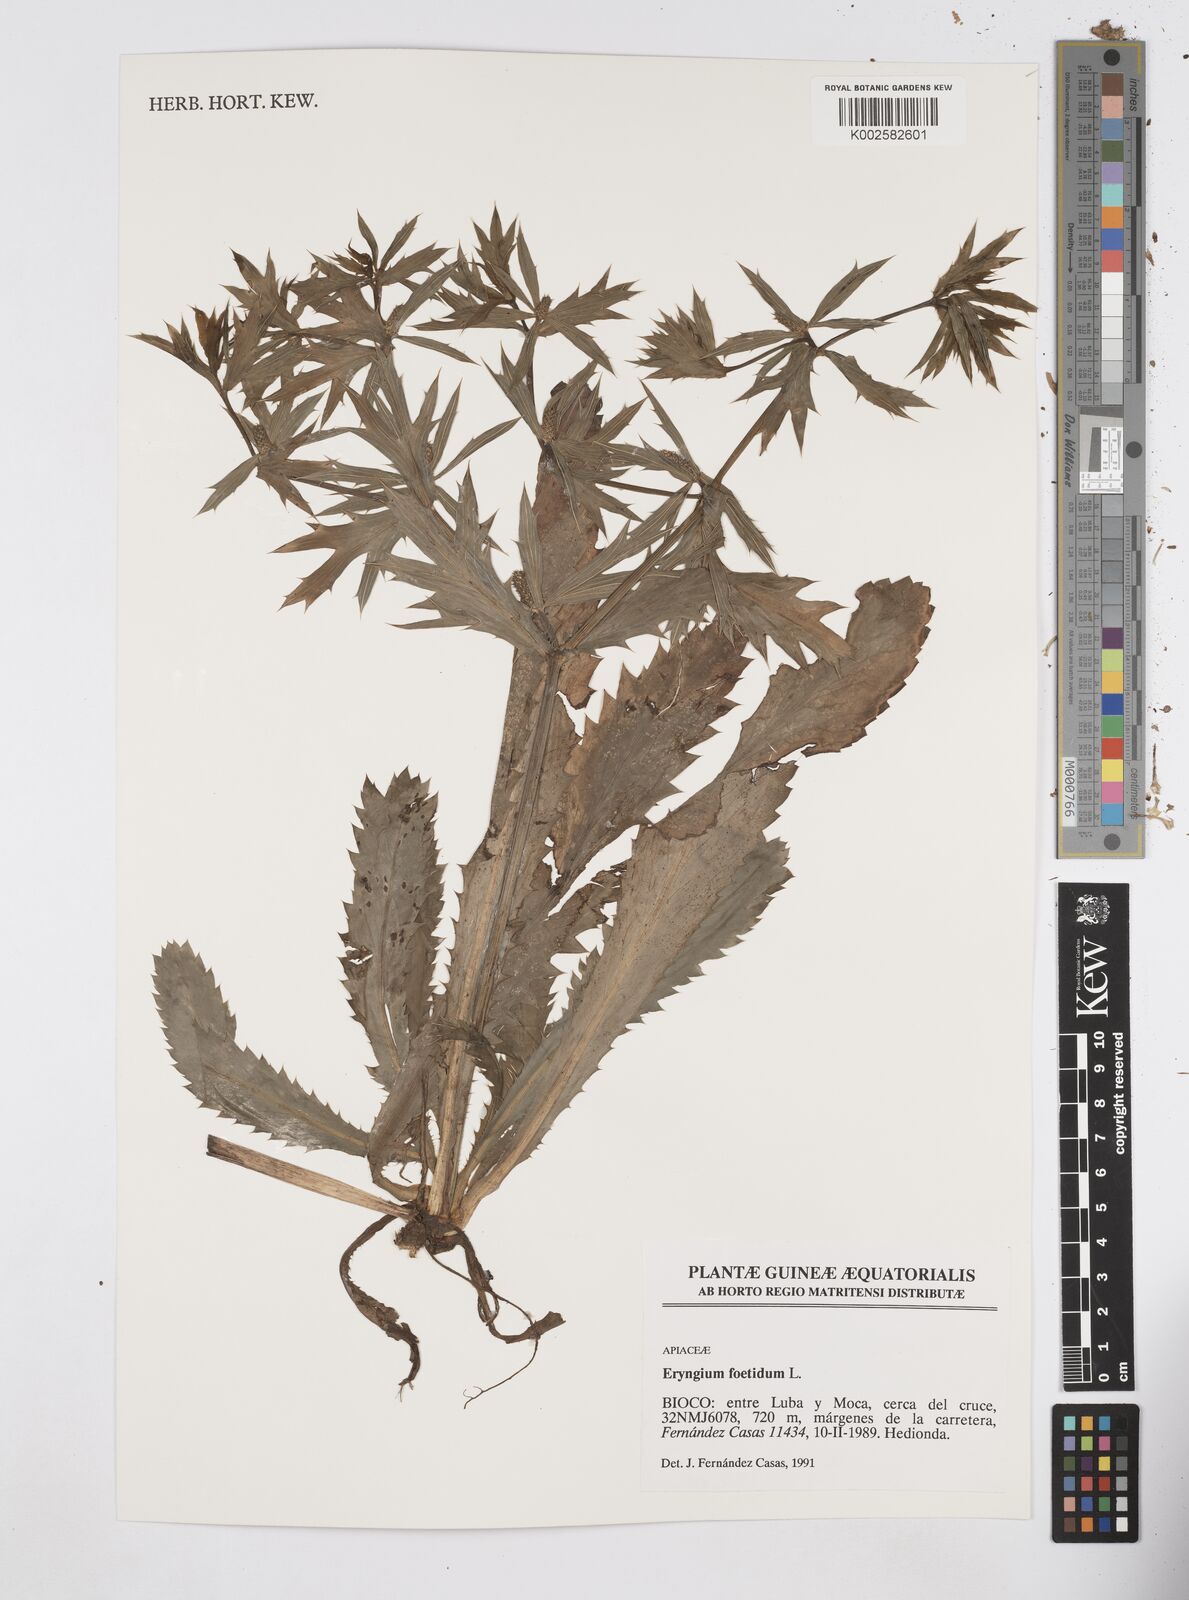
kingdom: Plantae
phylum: Tracheophyta
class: Magnoliopsida
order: Apiales
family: Apiaceae
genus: Eryngium
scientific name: Eryngium foetidum
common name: Fitweed
